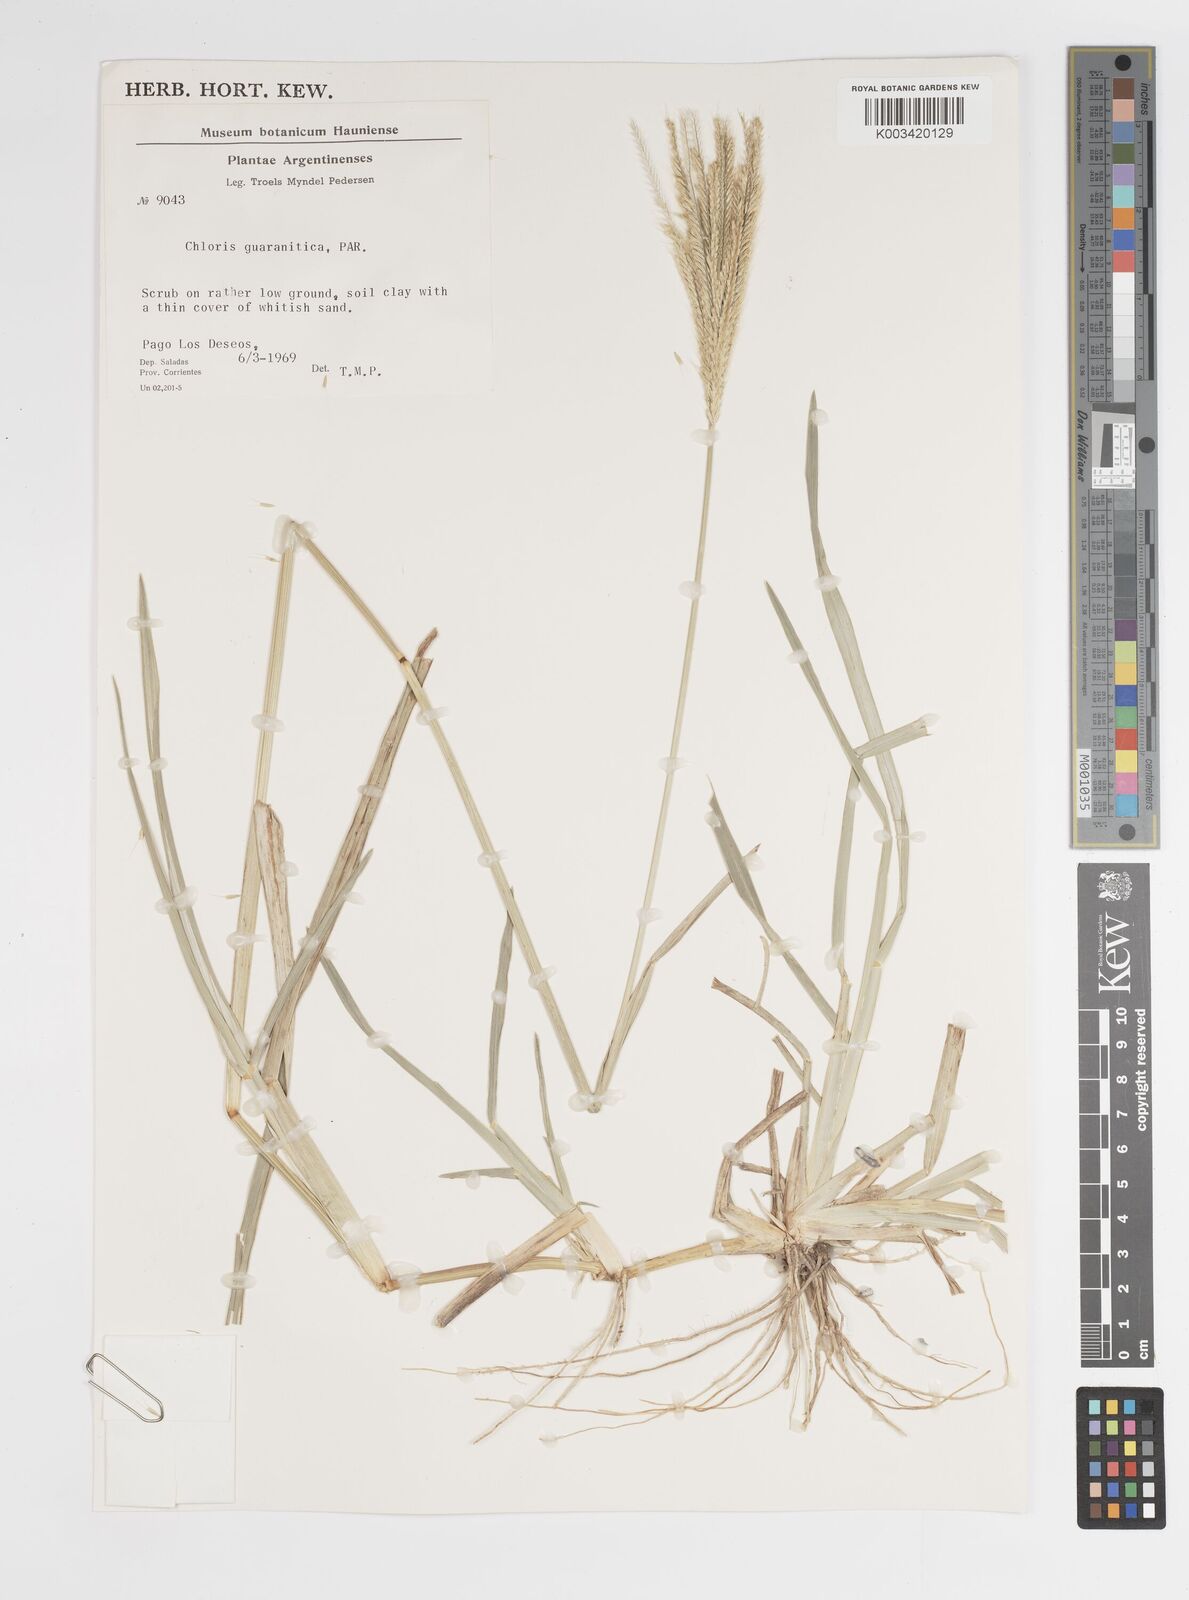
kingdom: Plantae
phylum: Tracheophyta
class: Liliopsida
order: Poales
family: Poaceae
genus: Chloris
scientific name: Chloris orthonoton
